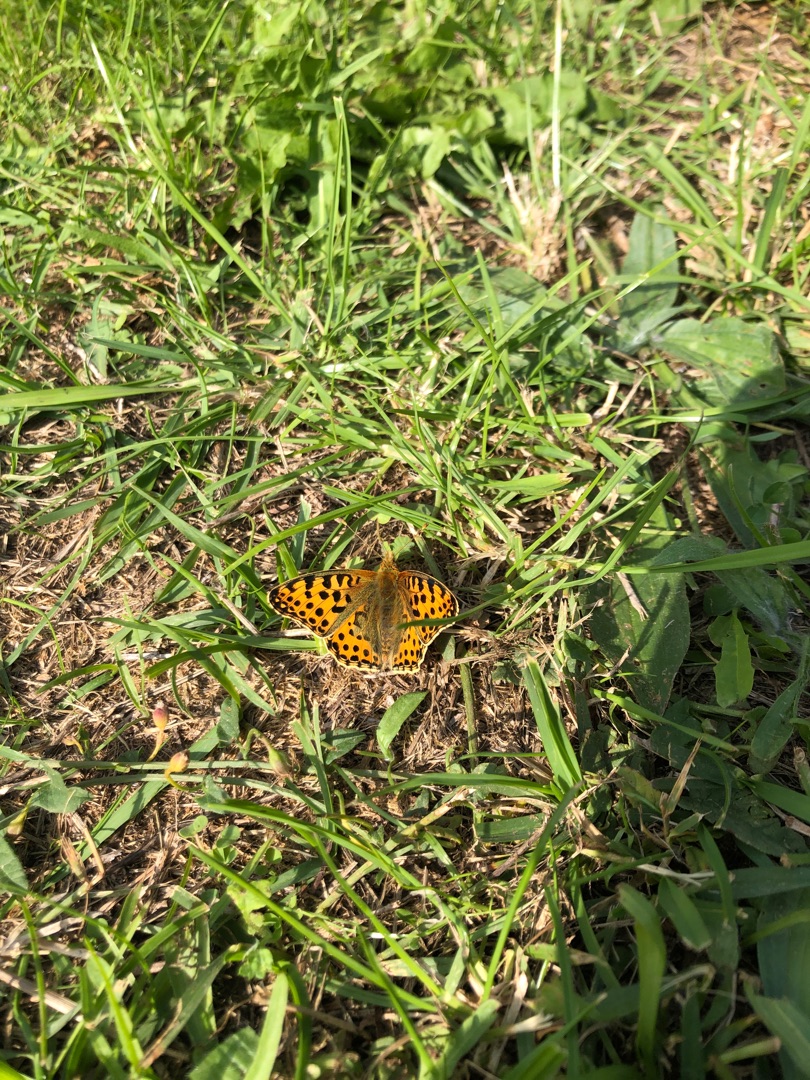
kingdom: Animalia
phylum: Arthropoda
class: Insecta
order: Lepidoptera
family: Nymphalidae
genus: Issoria
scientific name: Issoria lathonia
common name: Storplettet perlemorsommerfugl
